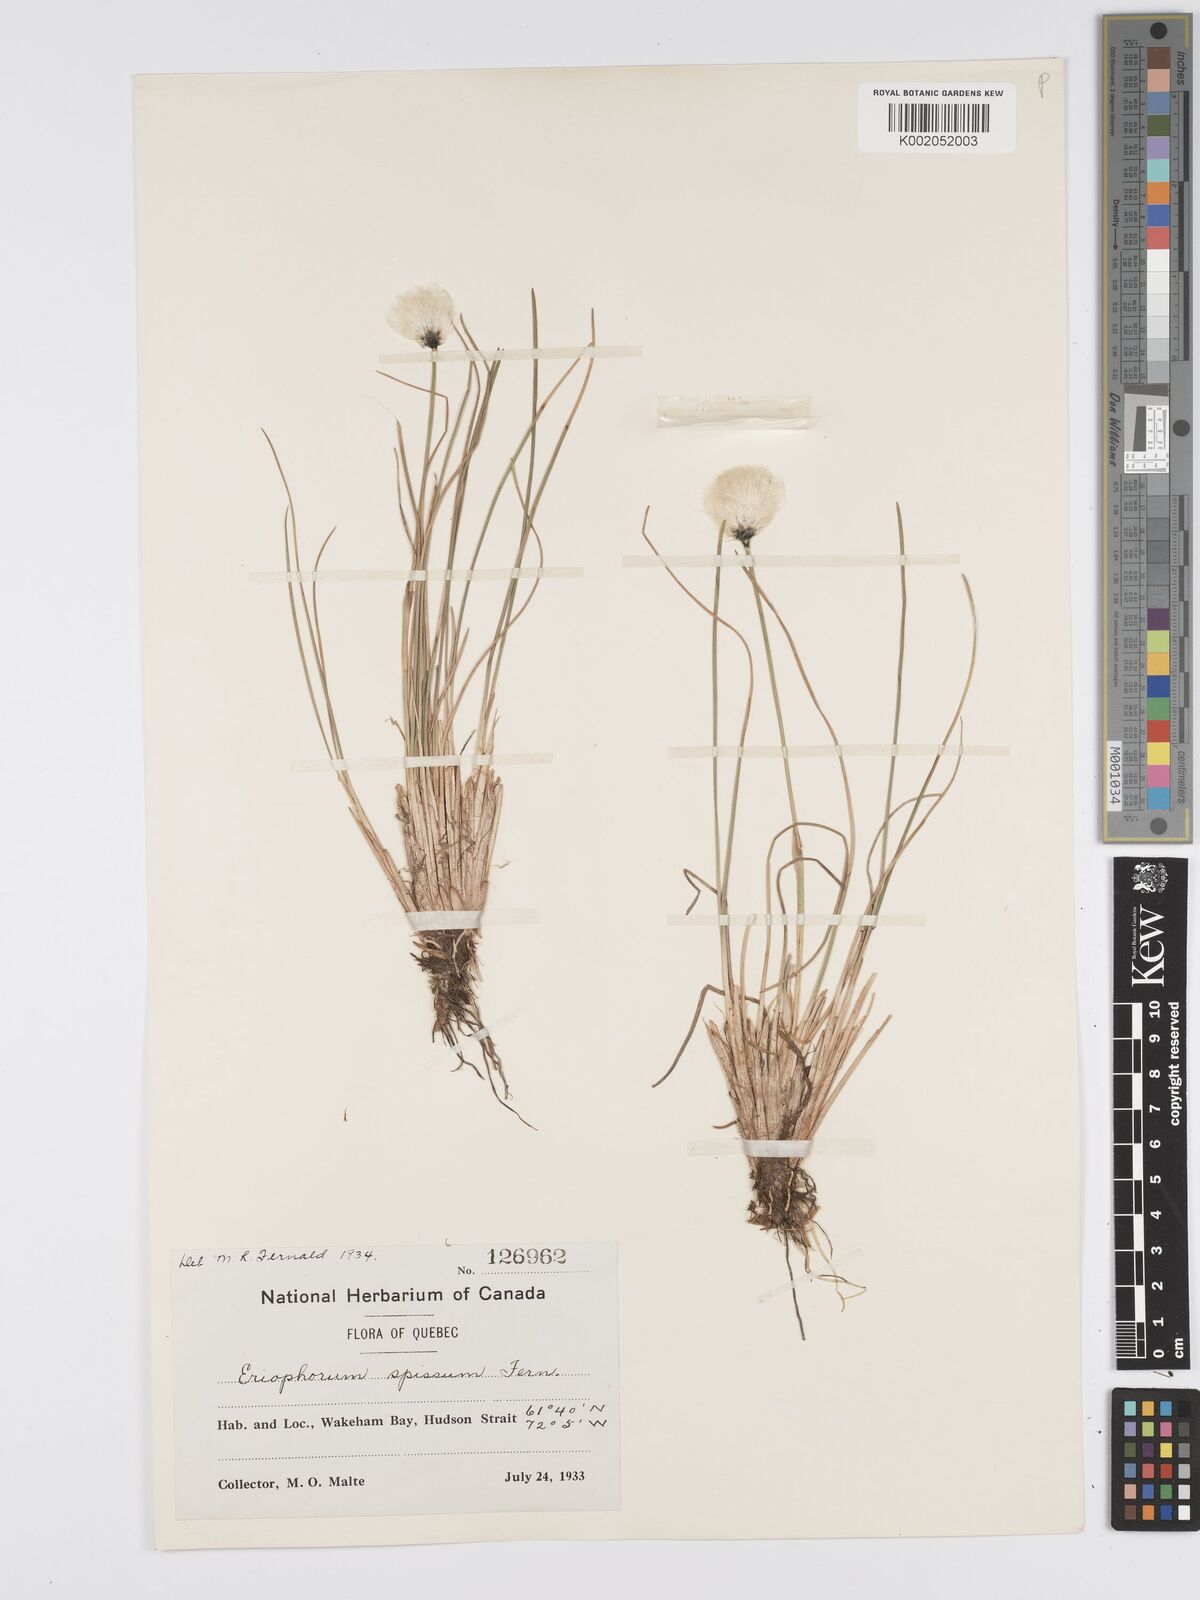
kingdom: Plantae
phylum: Tracheophyta
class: Liliopsida
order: Poales
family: Cyperaceae
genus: Eriophorum
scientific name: Eriophorum vaginatum
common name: Hare's-tail cottongrass
